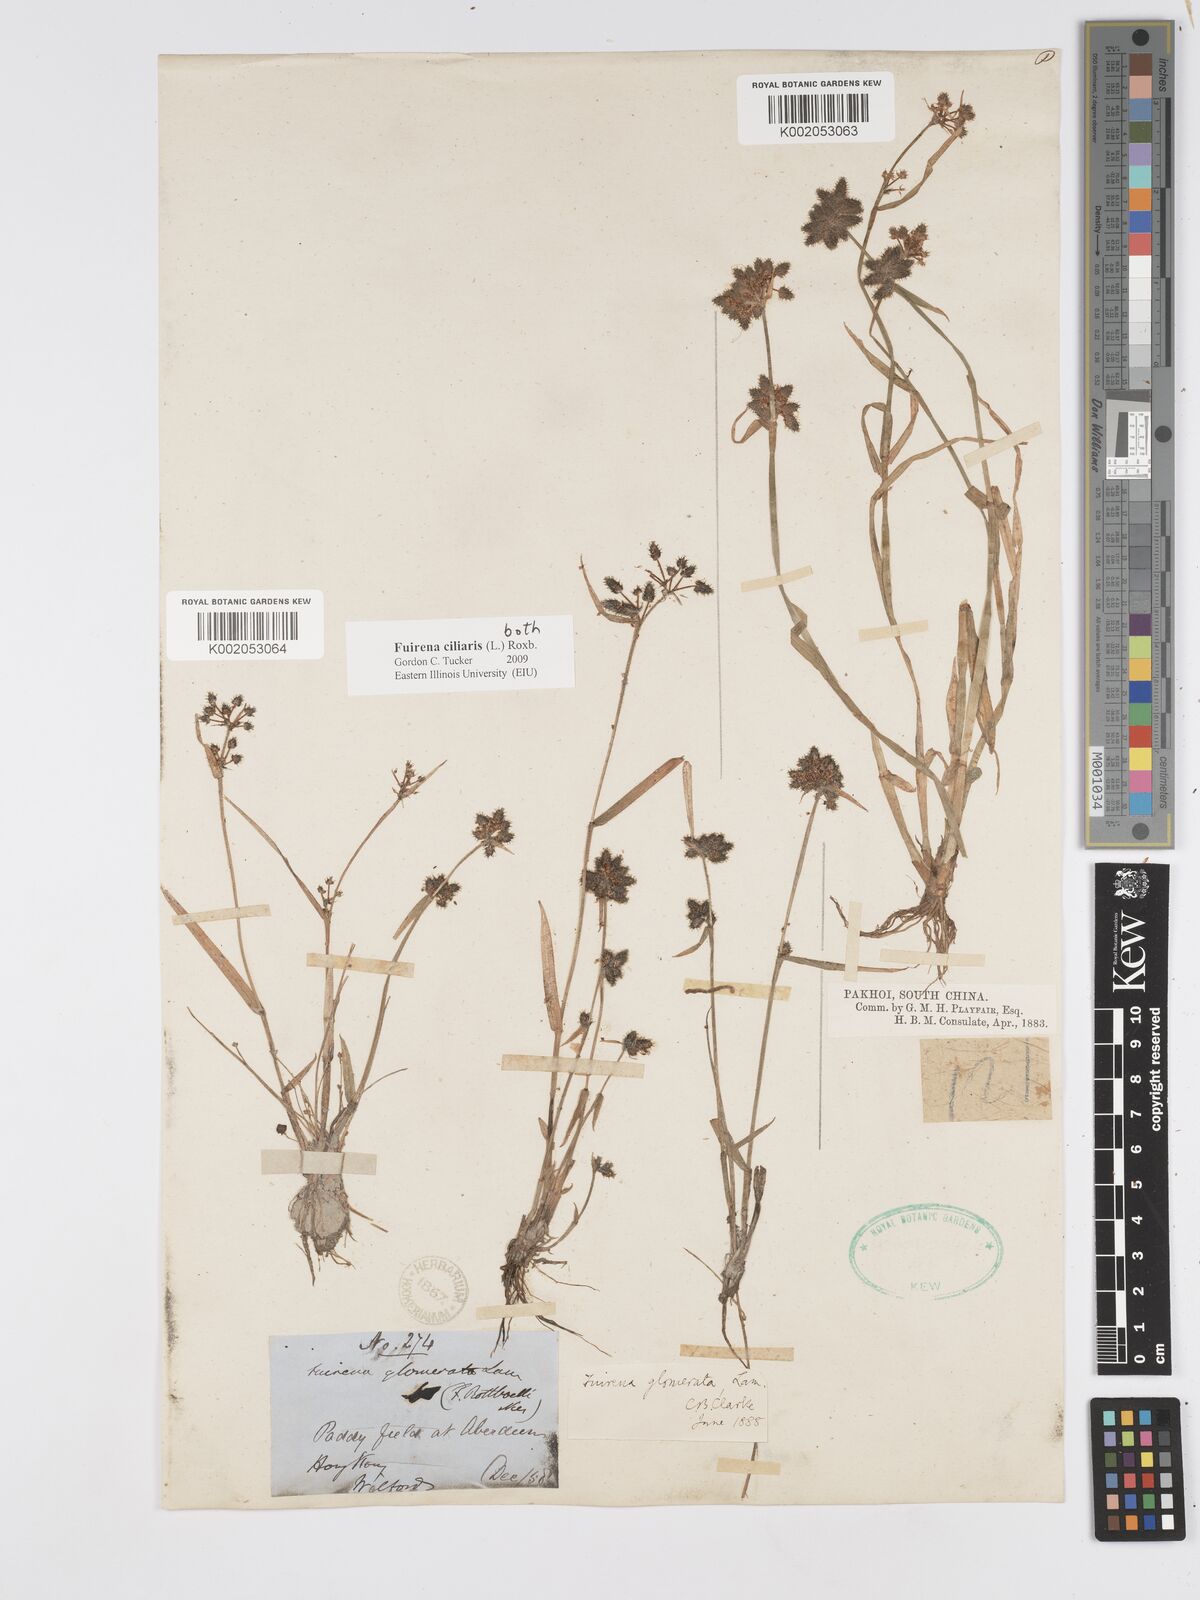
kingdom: Plantae
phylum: Tracheophyta
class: Liliopsida
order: Poales
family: Cyperaceae
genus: Fuirena
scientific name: Fuirena ciliaris
